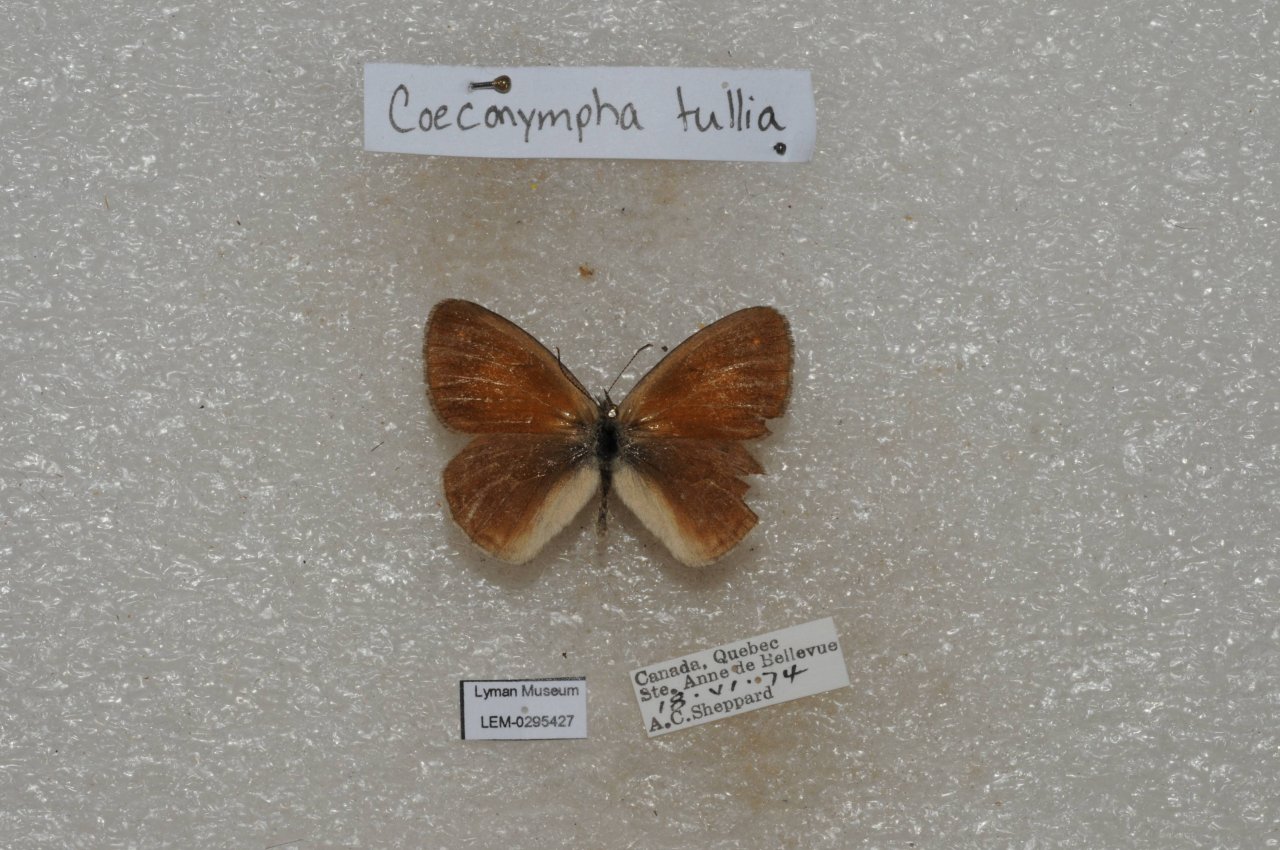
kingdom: Animalia
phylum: Arthropoda
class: Insecta
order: Lepidoptera
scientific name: Lepidoptera
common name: Butterflies
